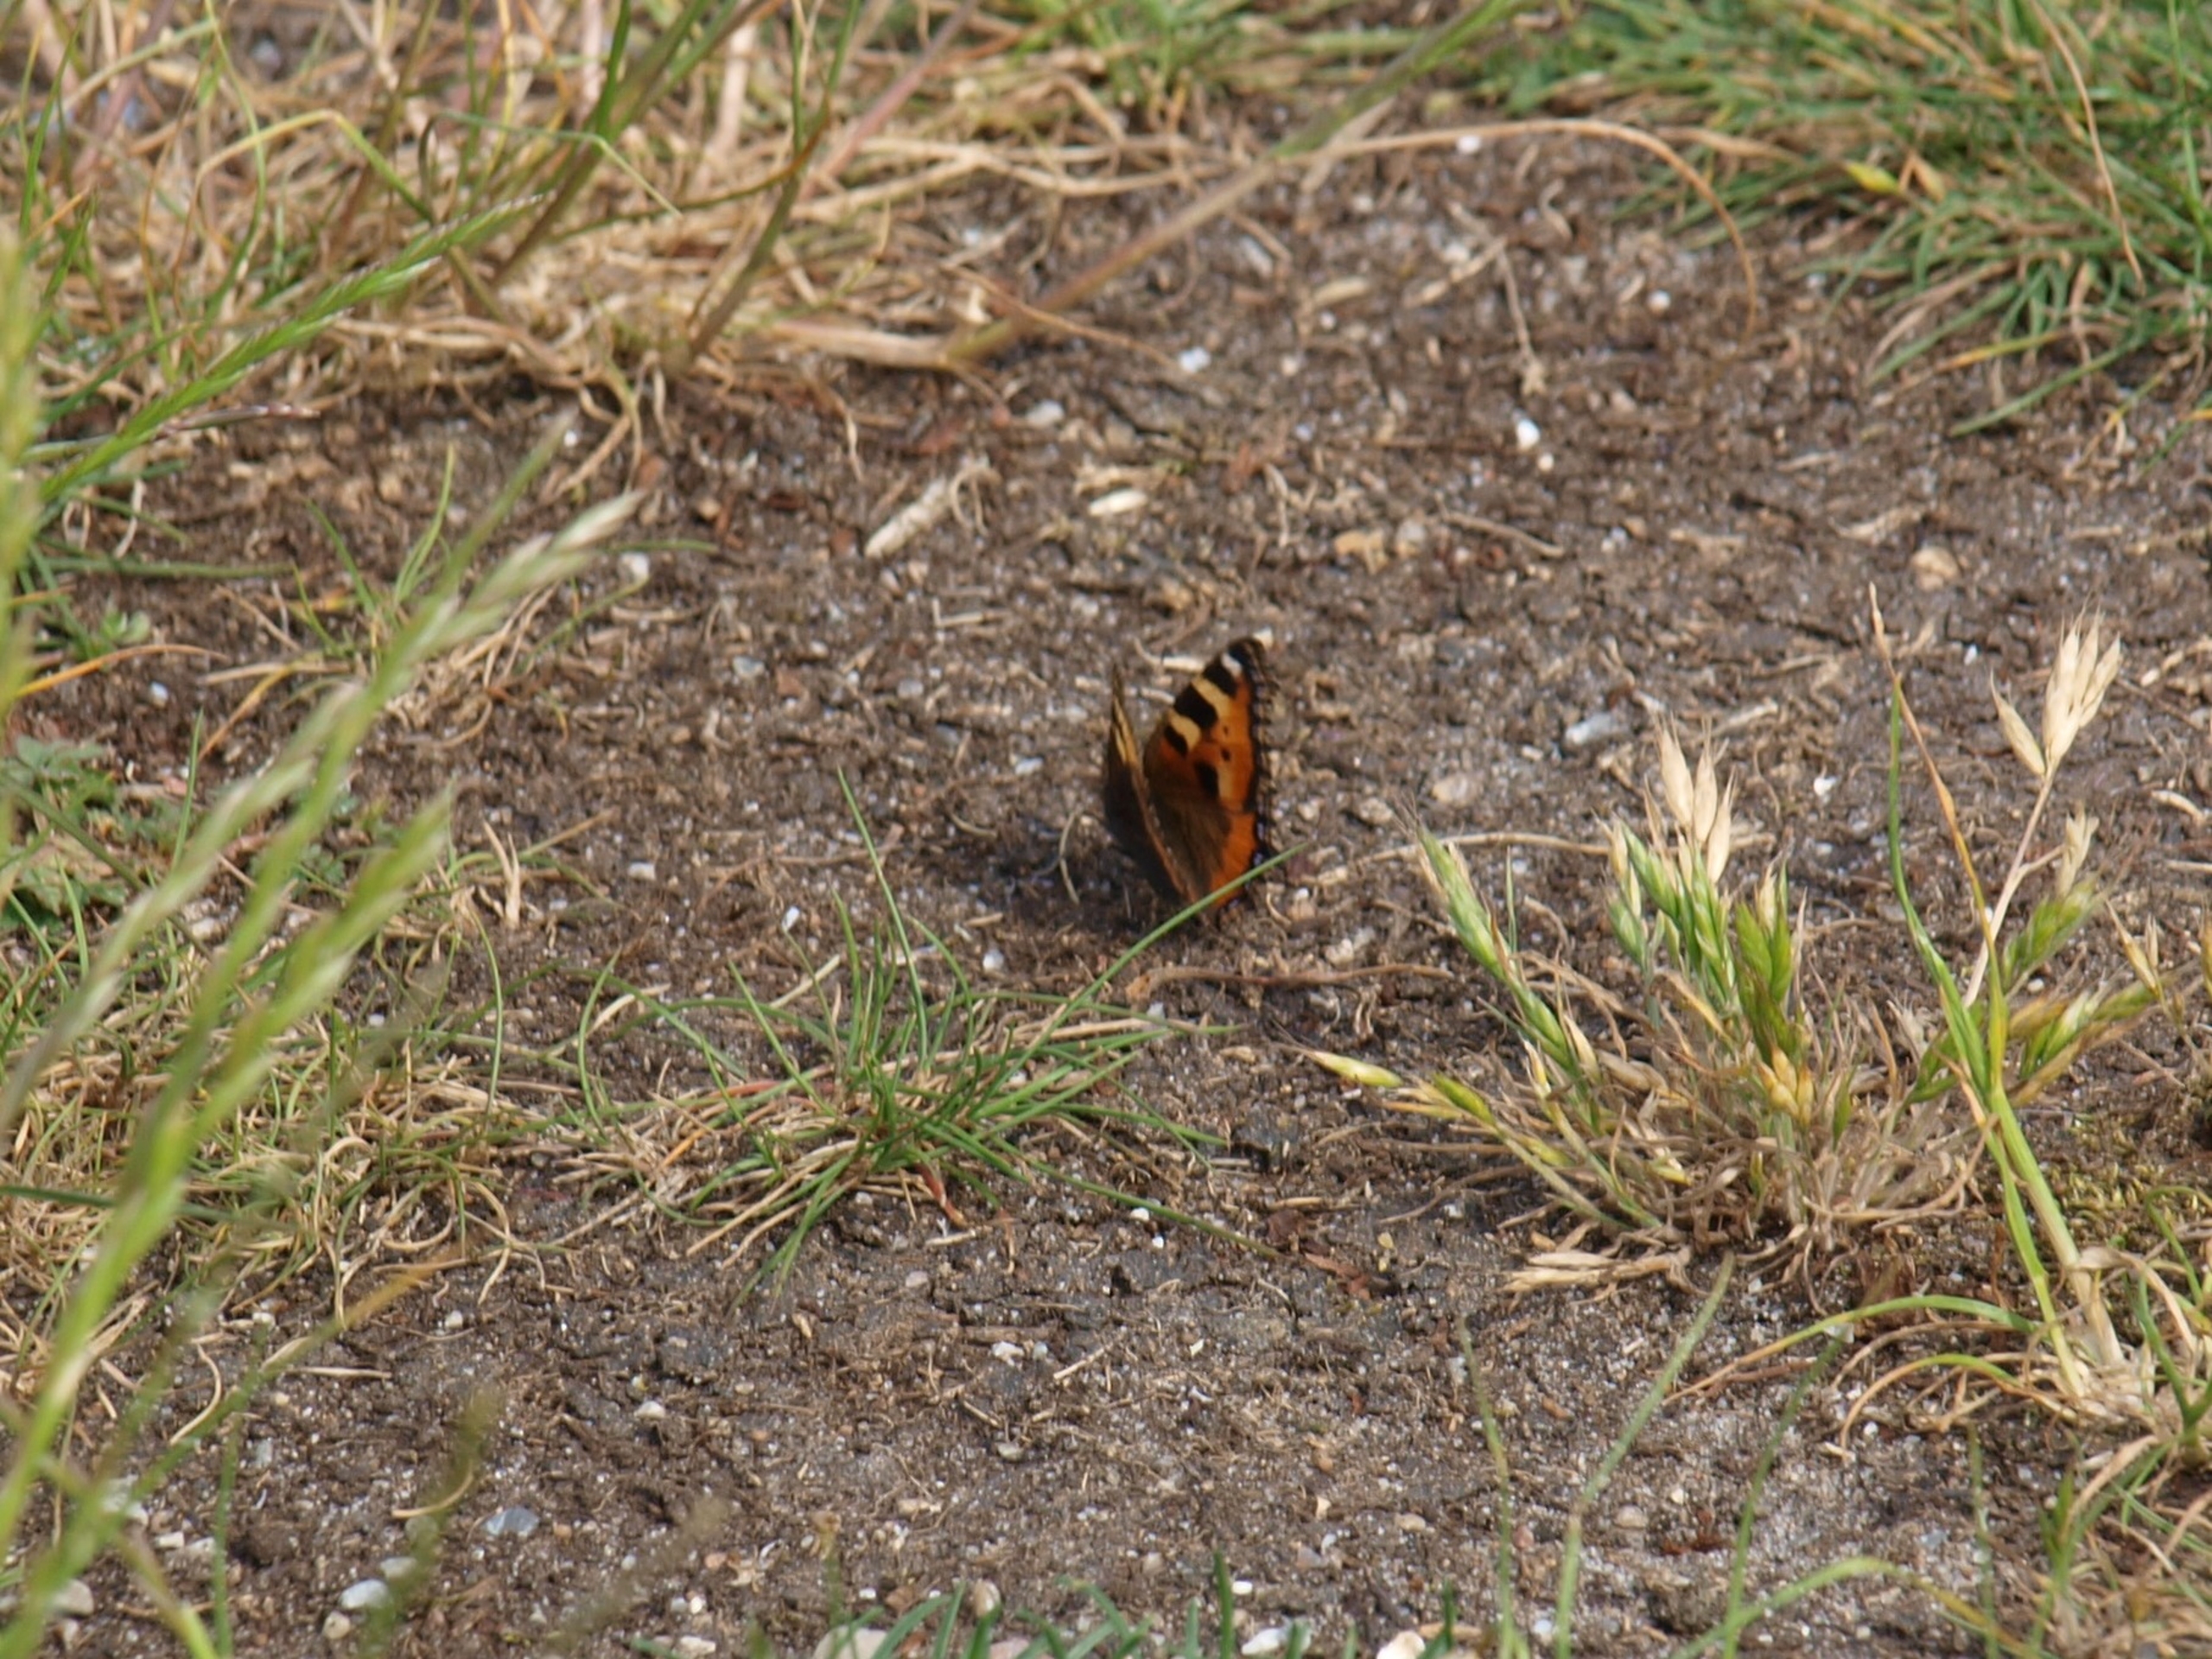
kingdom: Animalia
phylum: Arthropoda
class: Insecta
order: Lepidoptera
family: Nymphalidae
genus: Aglais
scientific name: Aglais urticae
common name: Nældens takvinge
